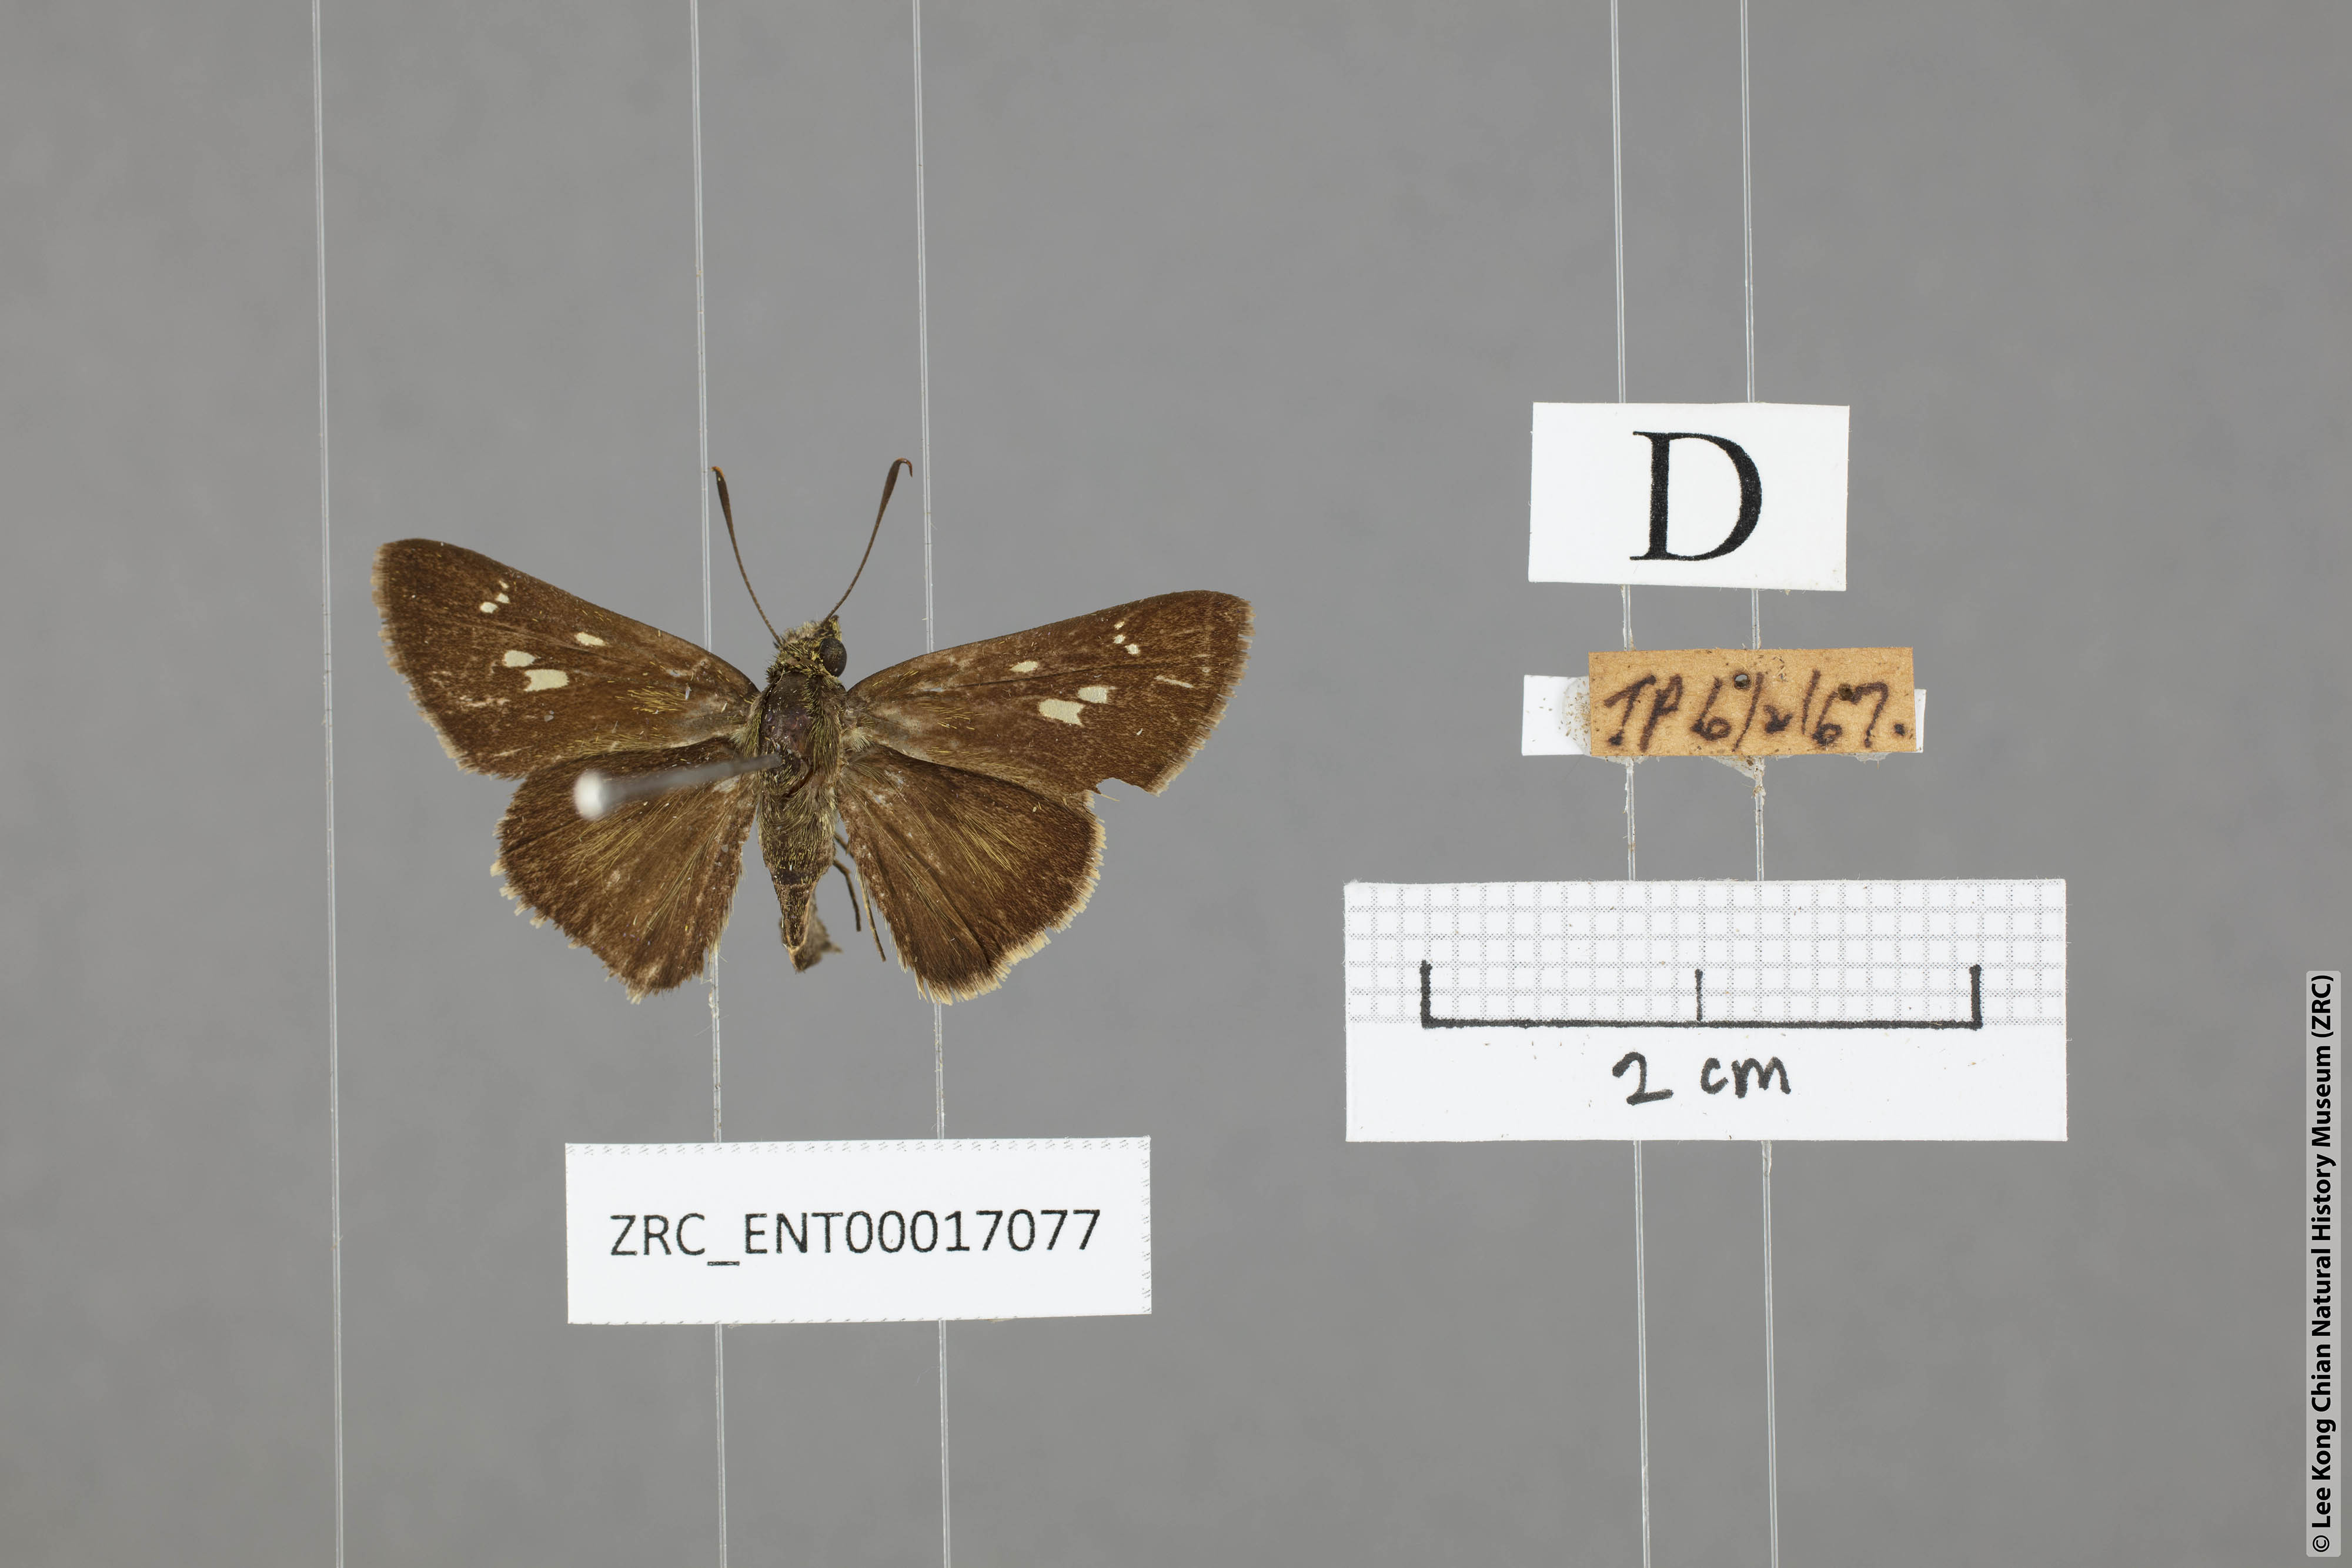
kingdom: Animalia
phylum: Arthropoda
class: Insecta
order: Lepidoptera
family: Hesperiidae
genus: Halpe
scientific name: Halpe veluvana
